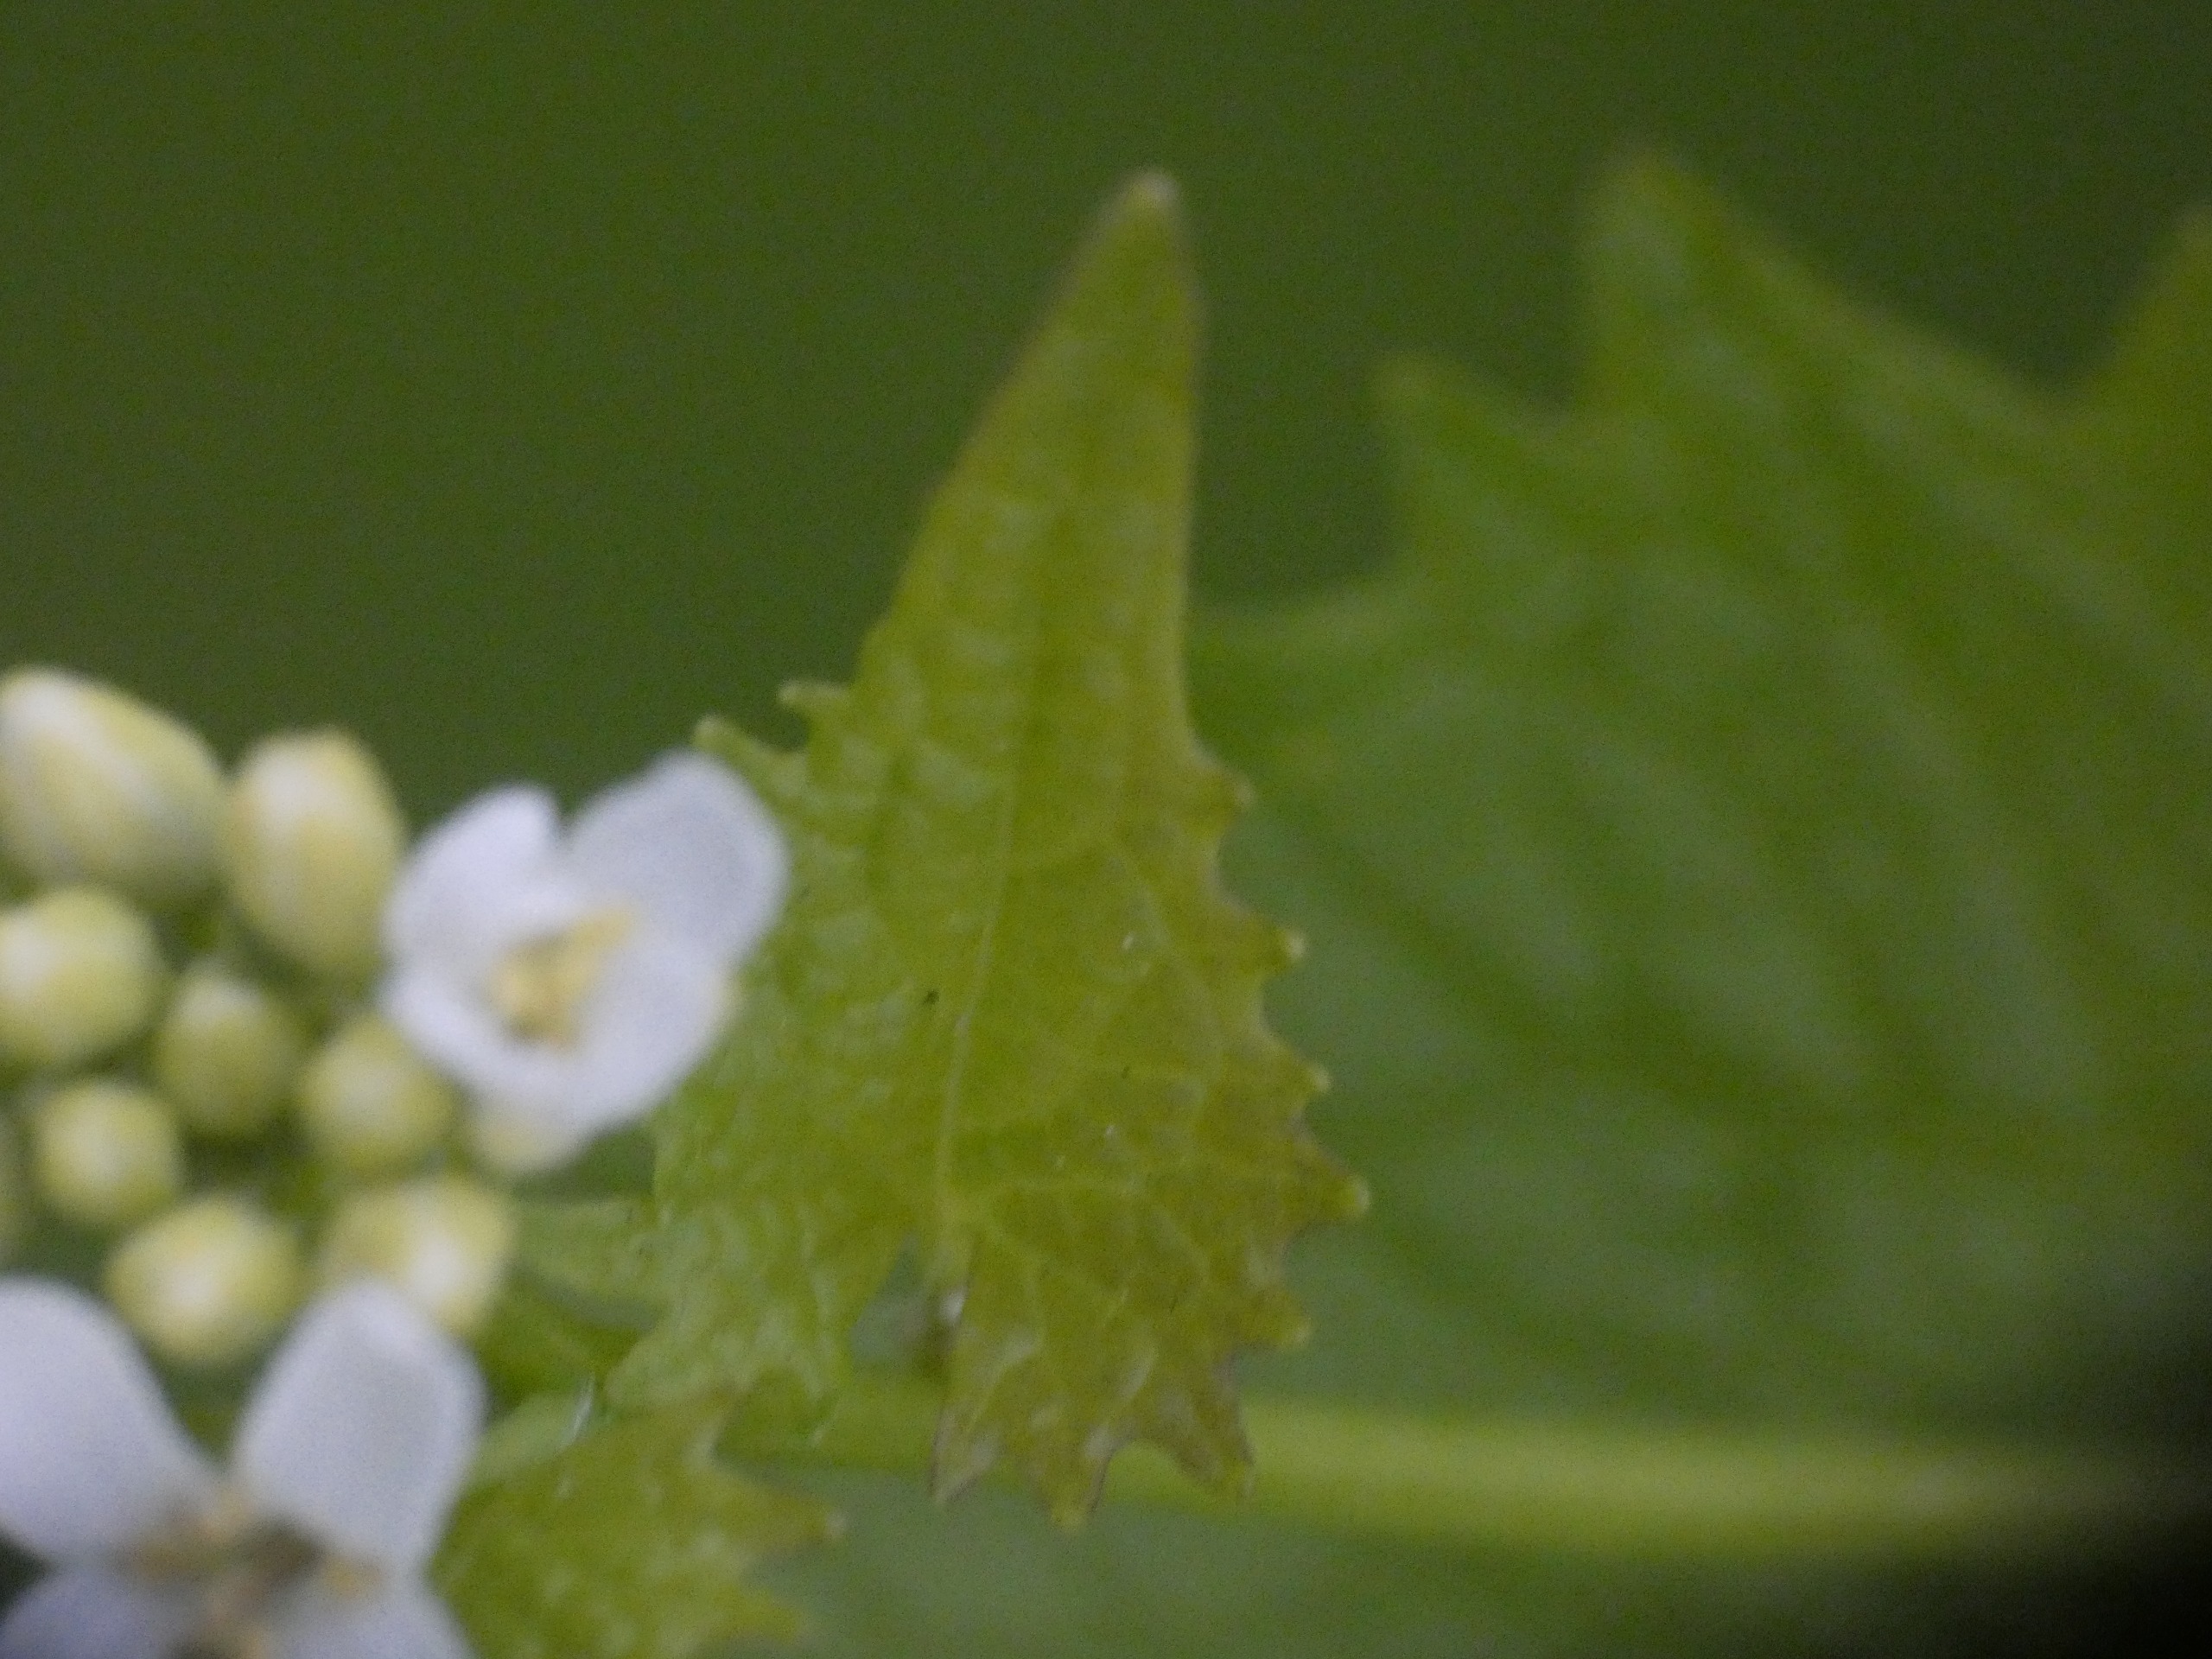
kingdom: Plantae
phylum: Tracheophyta
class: Magnoliopsida
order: Brassicales
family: Brassicaceae
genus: Alliaria
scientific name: Alliaria petiolata
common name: Løgkarse
